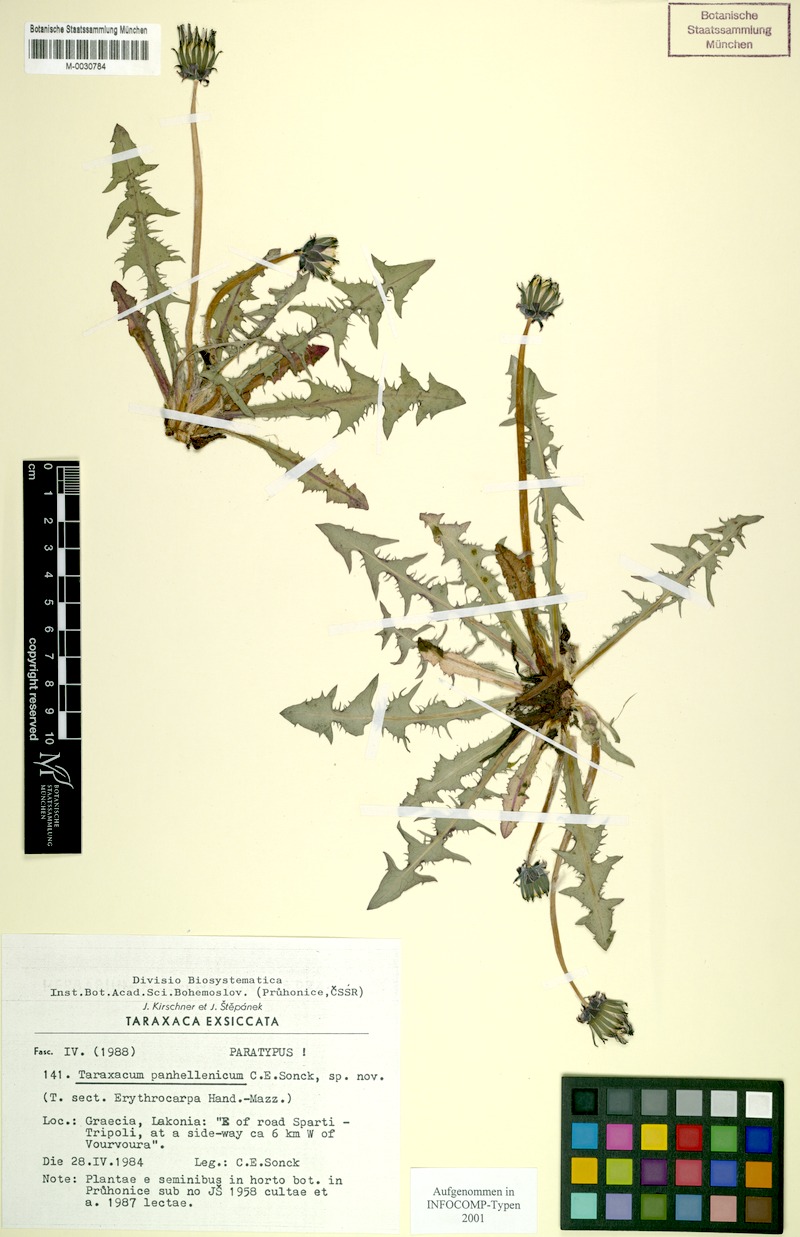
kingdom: Plantae
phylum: Tracheophyta
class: Magnoliopsida
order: Asterales
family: Asteraceae
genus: Taraxacum
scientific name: Taraxacum panhellenicum
